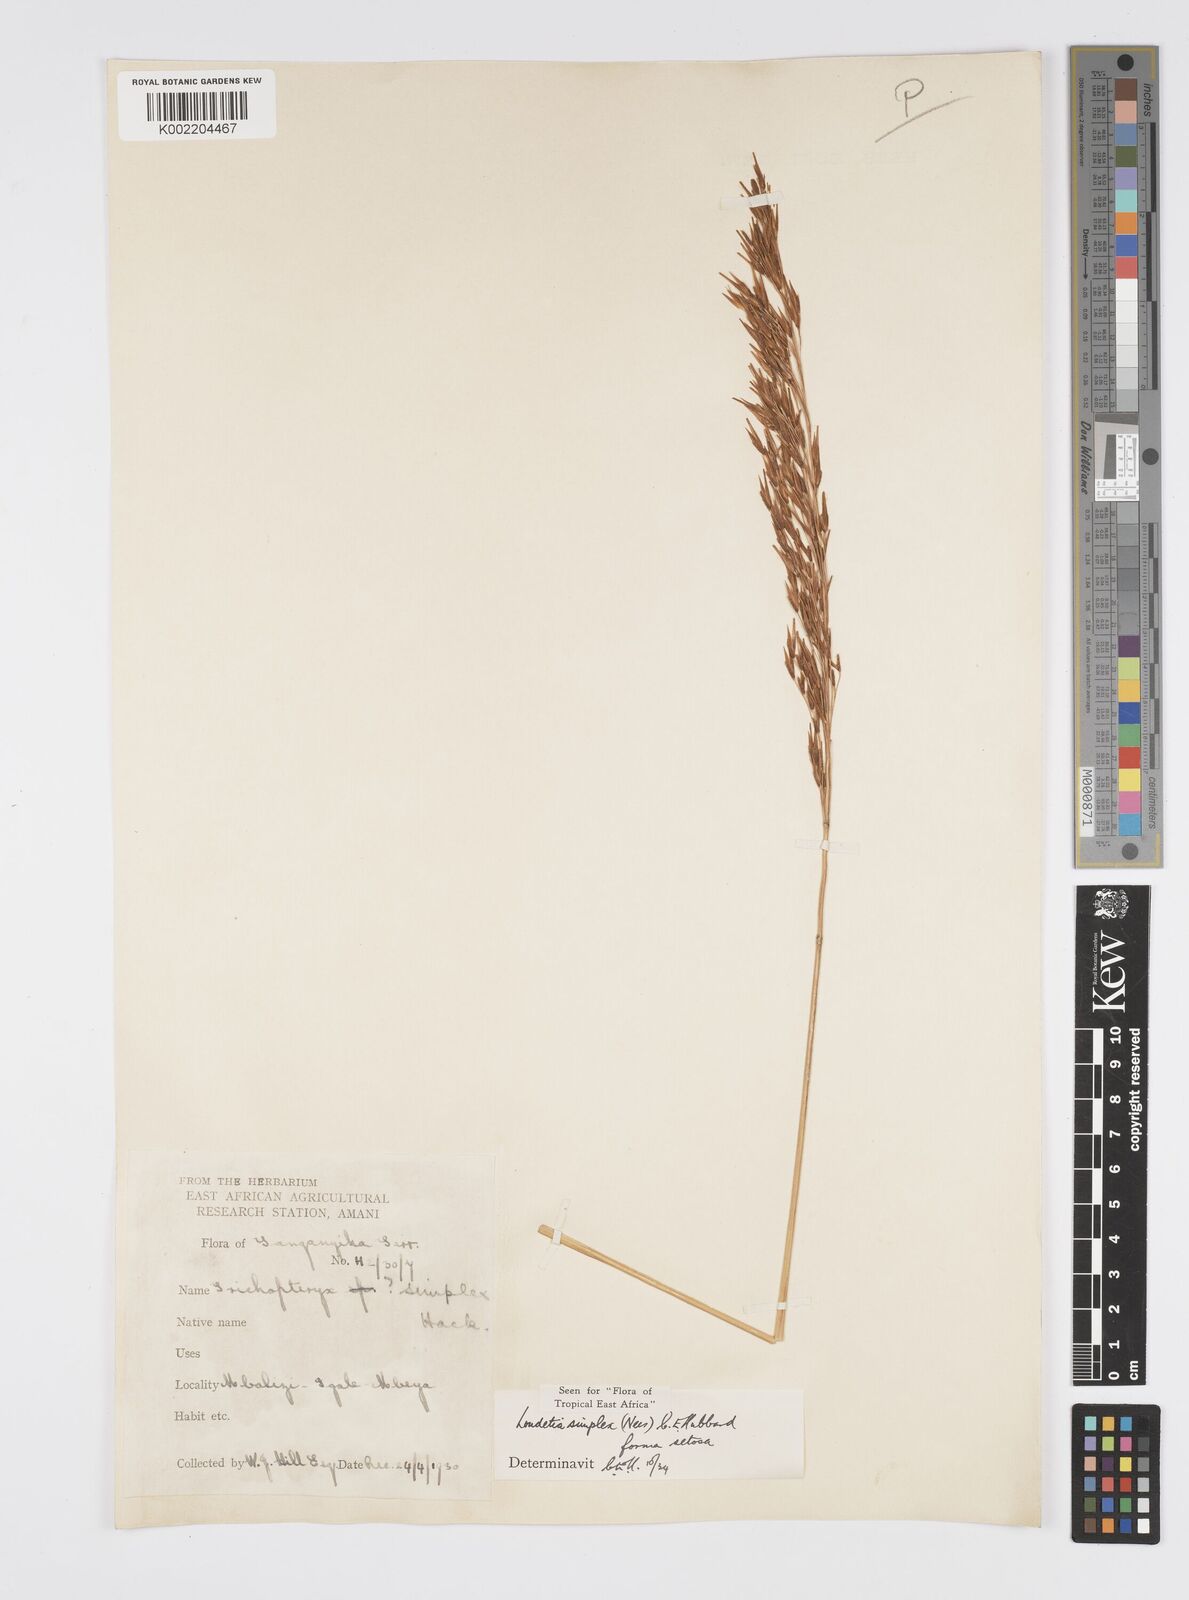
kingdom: Plantae
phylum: Tracheophyta
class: Liliopsida
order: Poales
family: Poaceae
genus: Loudetia
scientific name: Loudetia simplex
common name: Common russet grass
